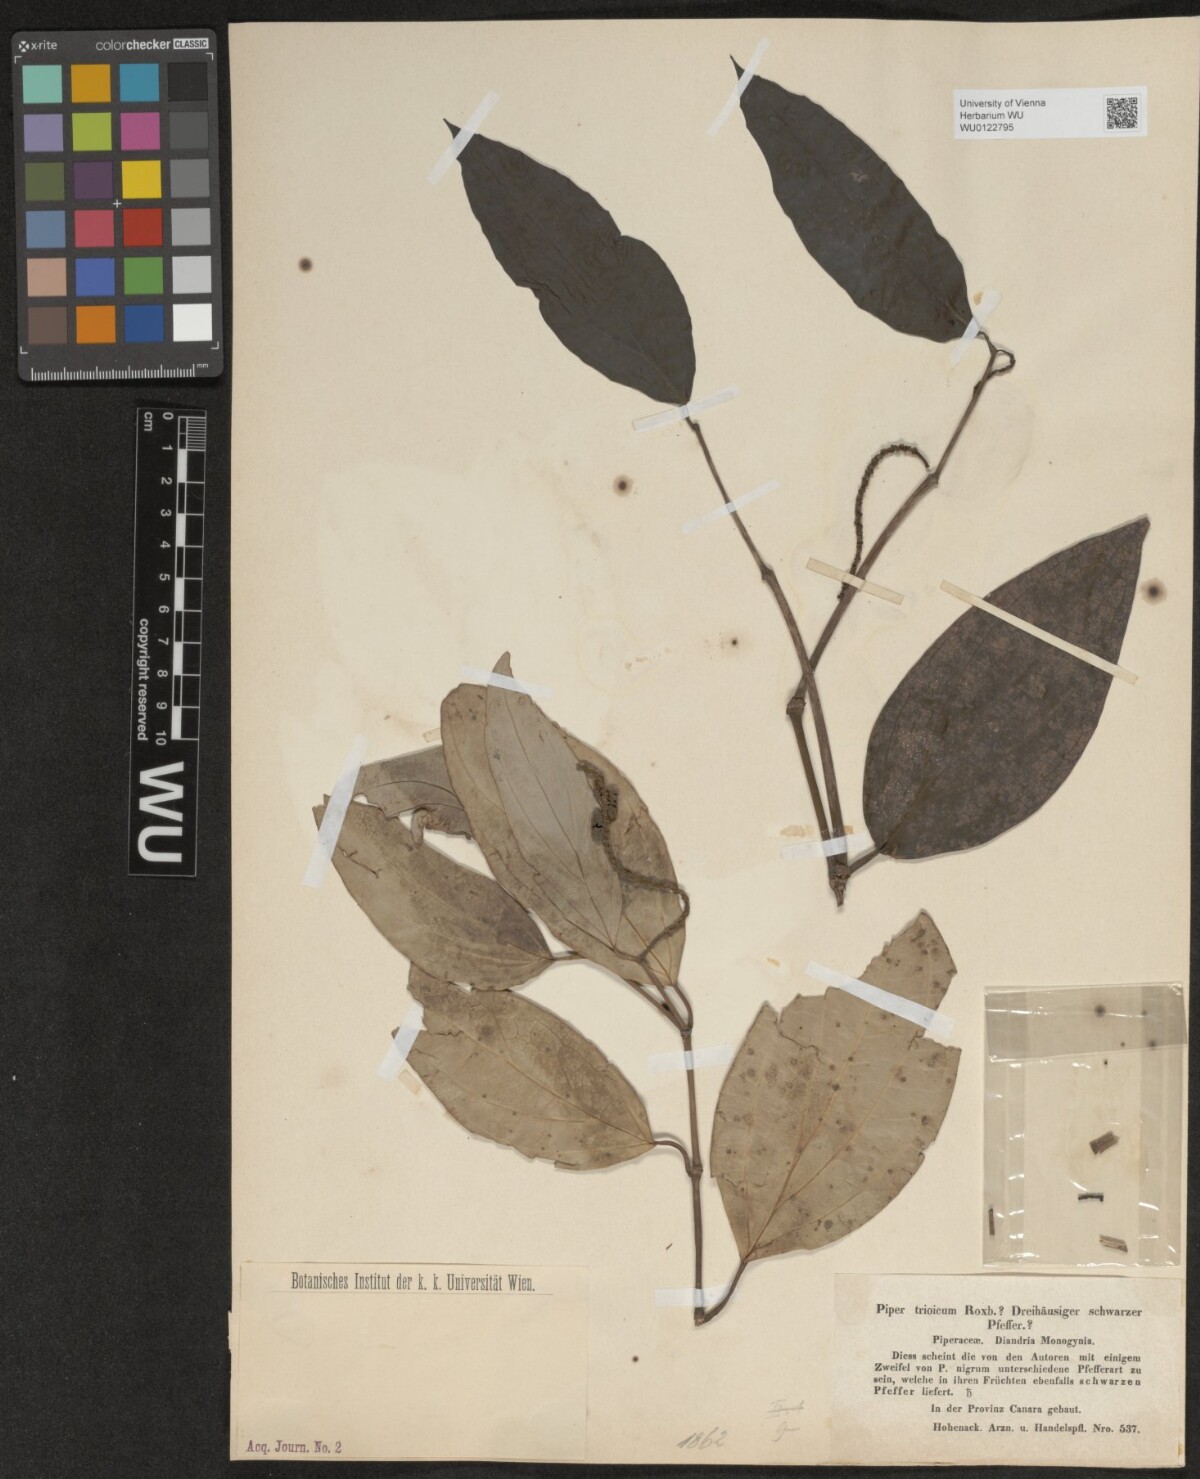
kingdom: Plantae
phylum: Tracheophyta
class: Magnoliopsida
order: Piperales
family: Piperaceae
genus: Piper
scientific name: Piper nigrum
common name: Black pepper
